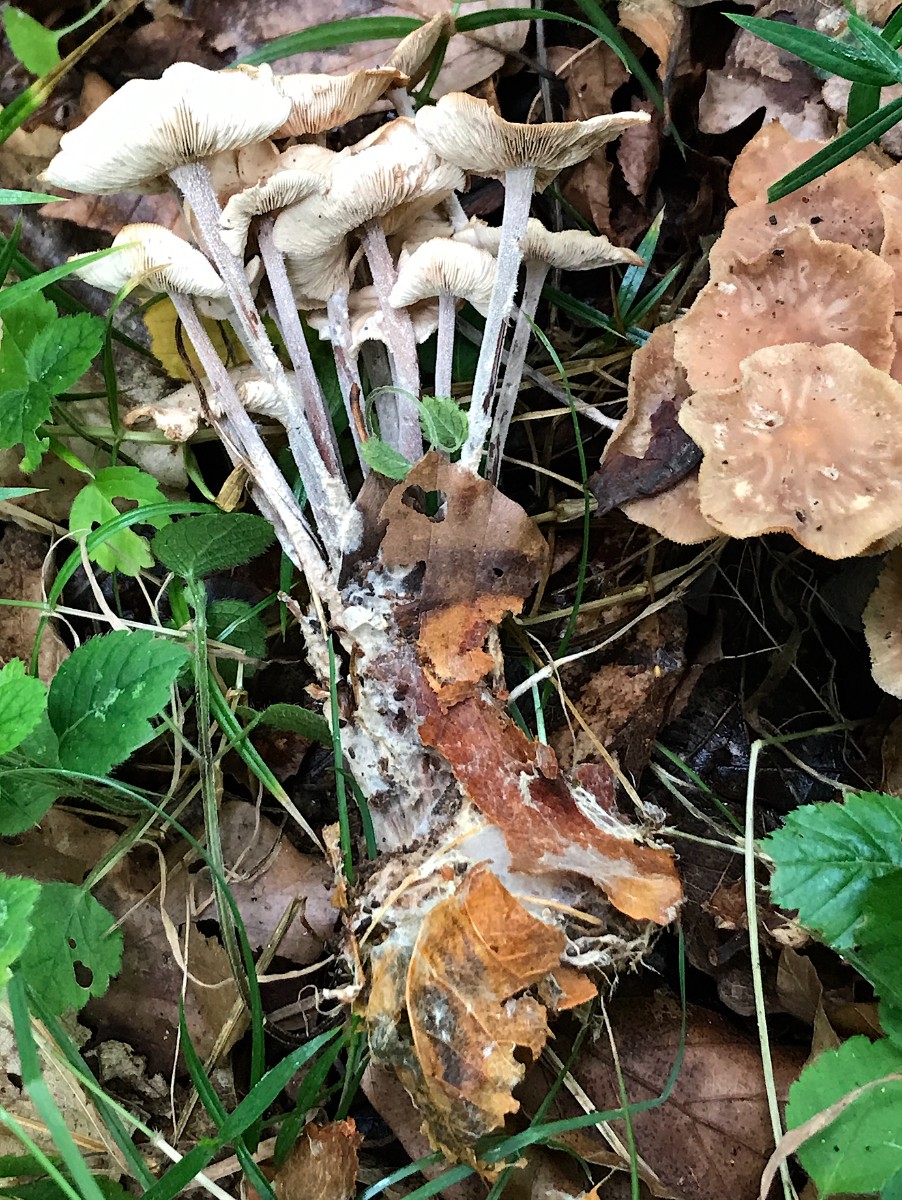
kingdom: Fungi
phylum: Basidiomycota
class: Agaricomycetes
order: Agaricales
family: Omphalotaceae
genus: Collybiopsis
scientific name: Collybiopsis confluens
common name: knippe-fladhat
